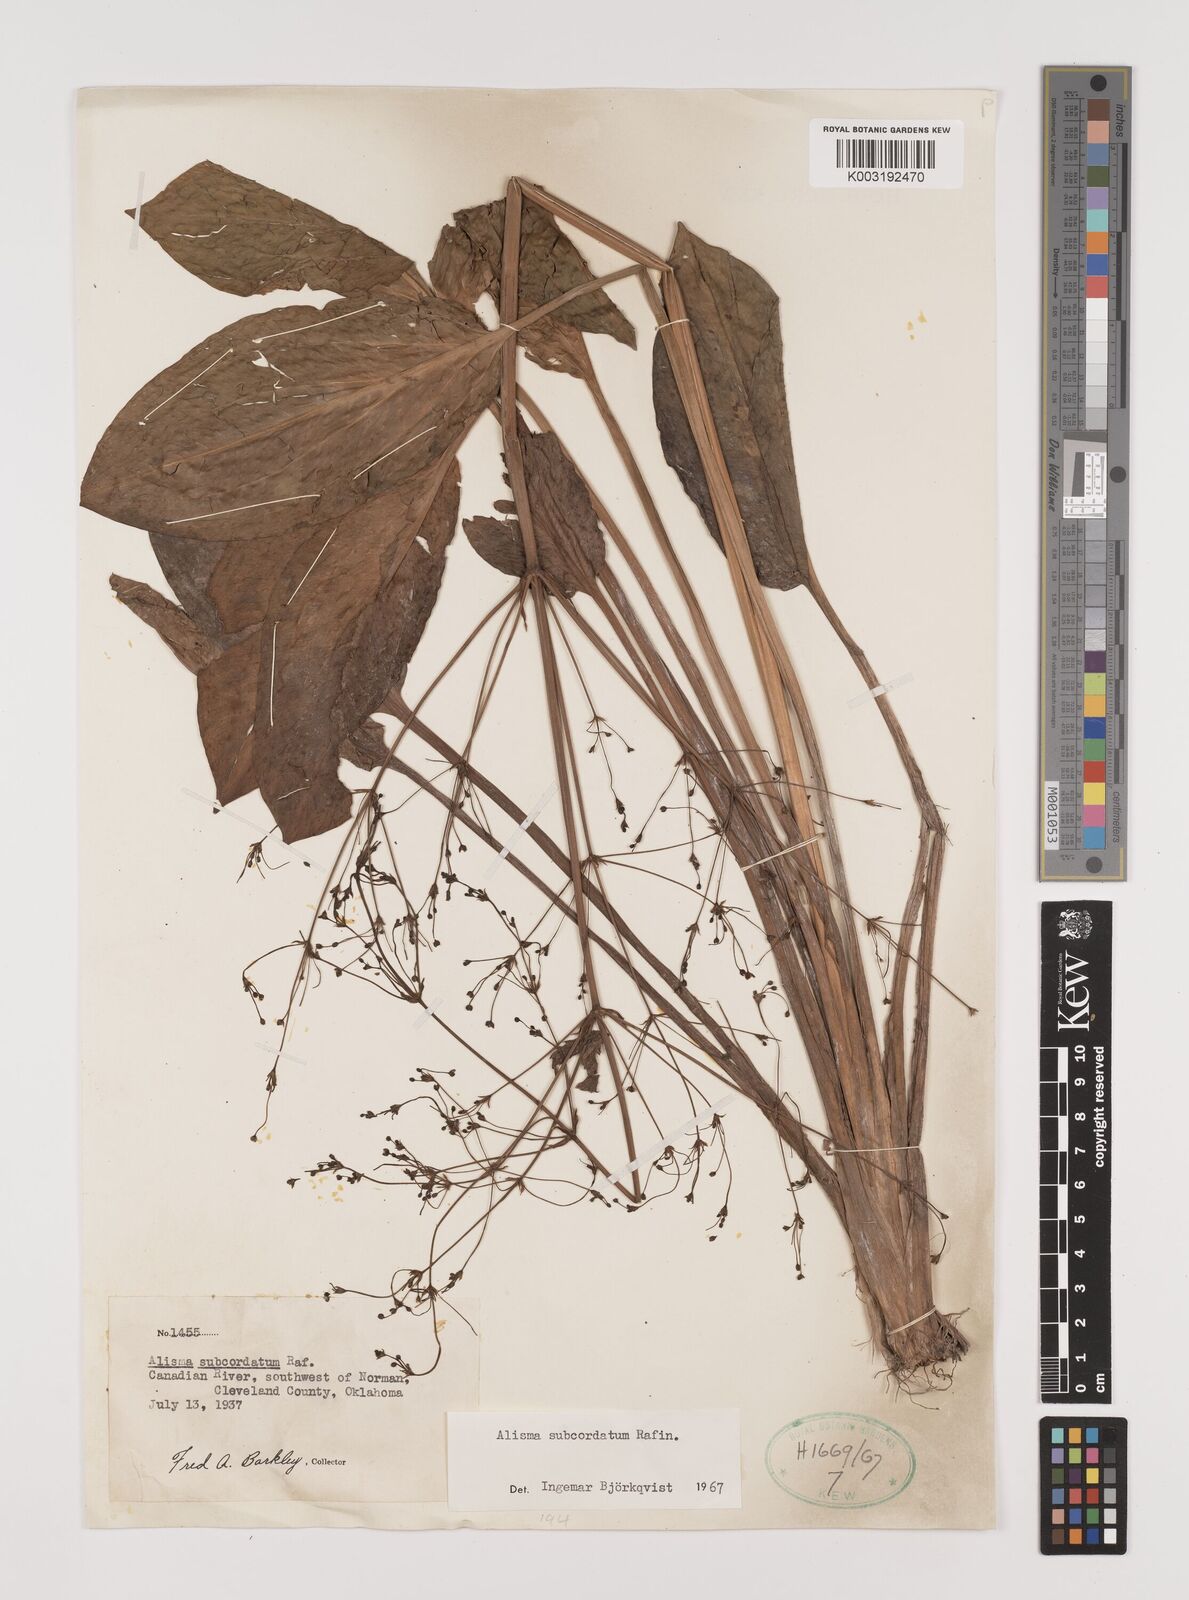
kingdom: Plantae
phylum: Tracheophyta
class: Liliopsida
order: Alismatales
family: Alismataceae
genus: Alisma
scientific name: Alisma subcordatum
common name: Southern water-plantain
